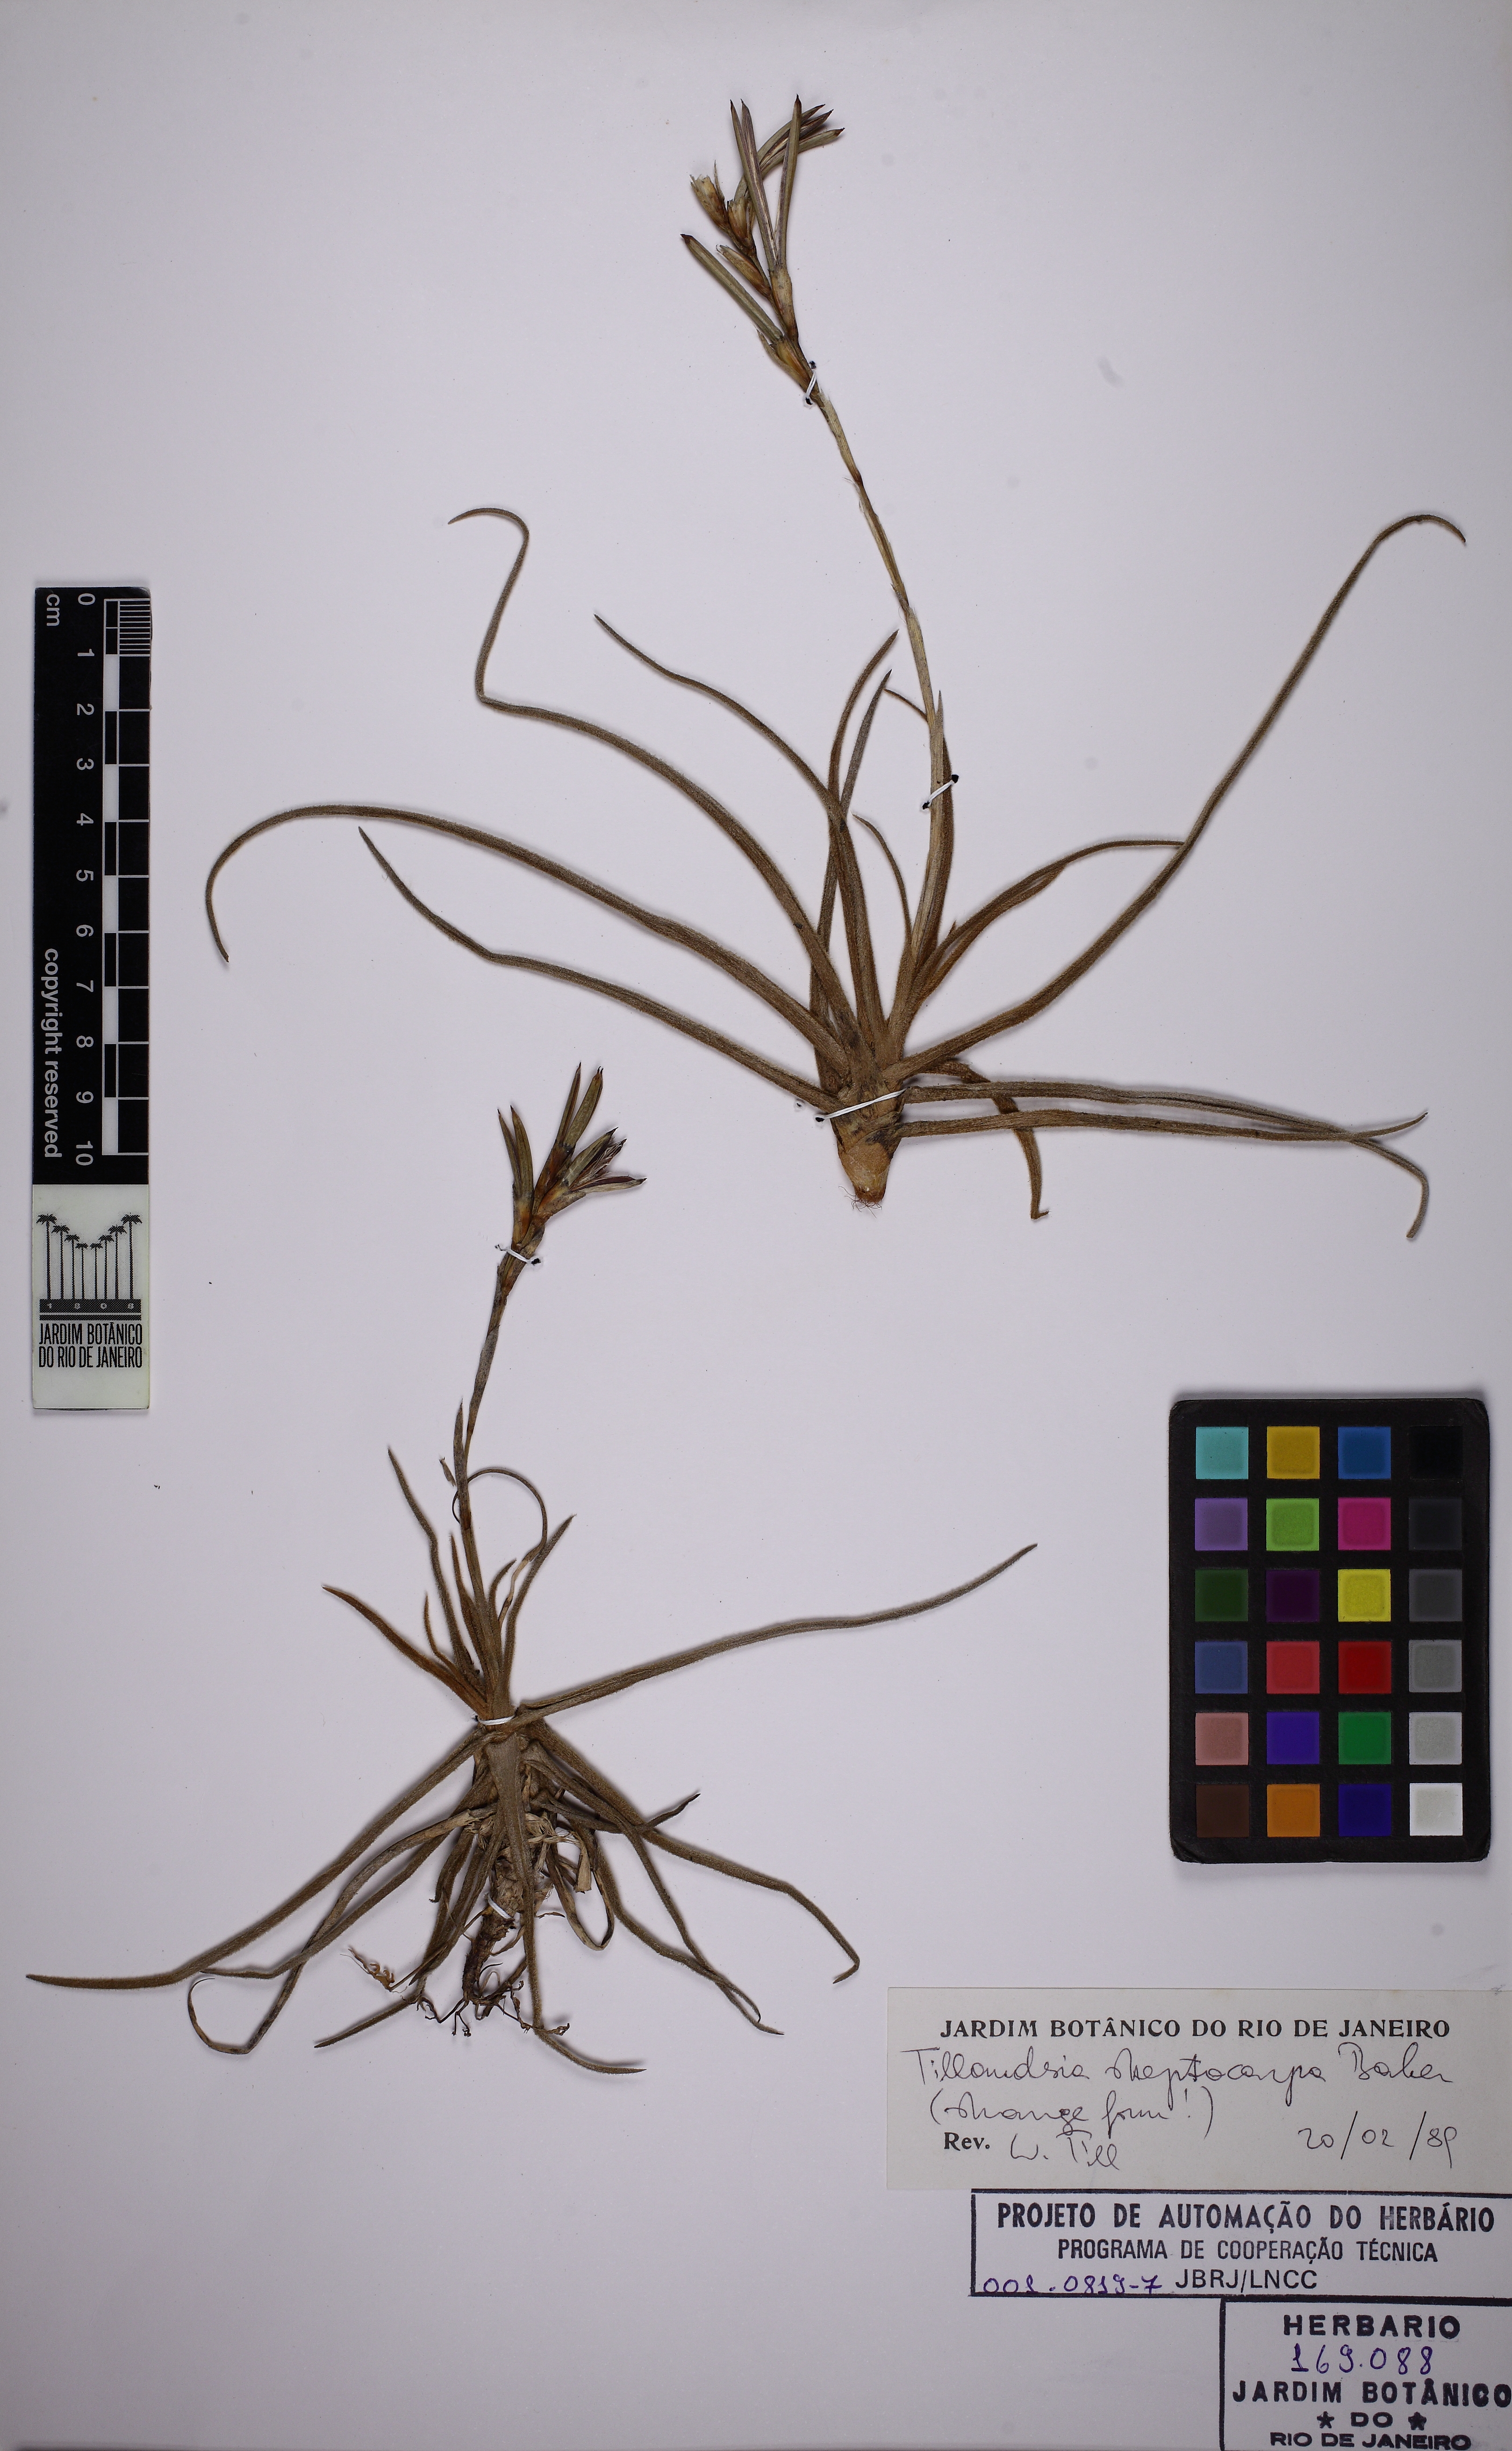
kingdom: Plantae
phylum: Tracheophyta
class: Liliopsida
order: Poales
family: Bromeliaceae
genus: Tillandsia
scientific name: Tillandsia streptocarpa
